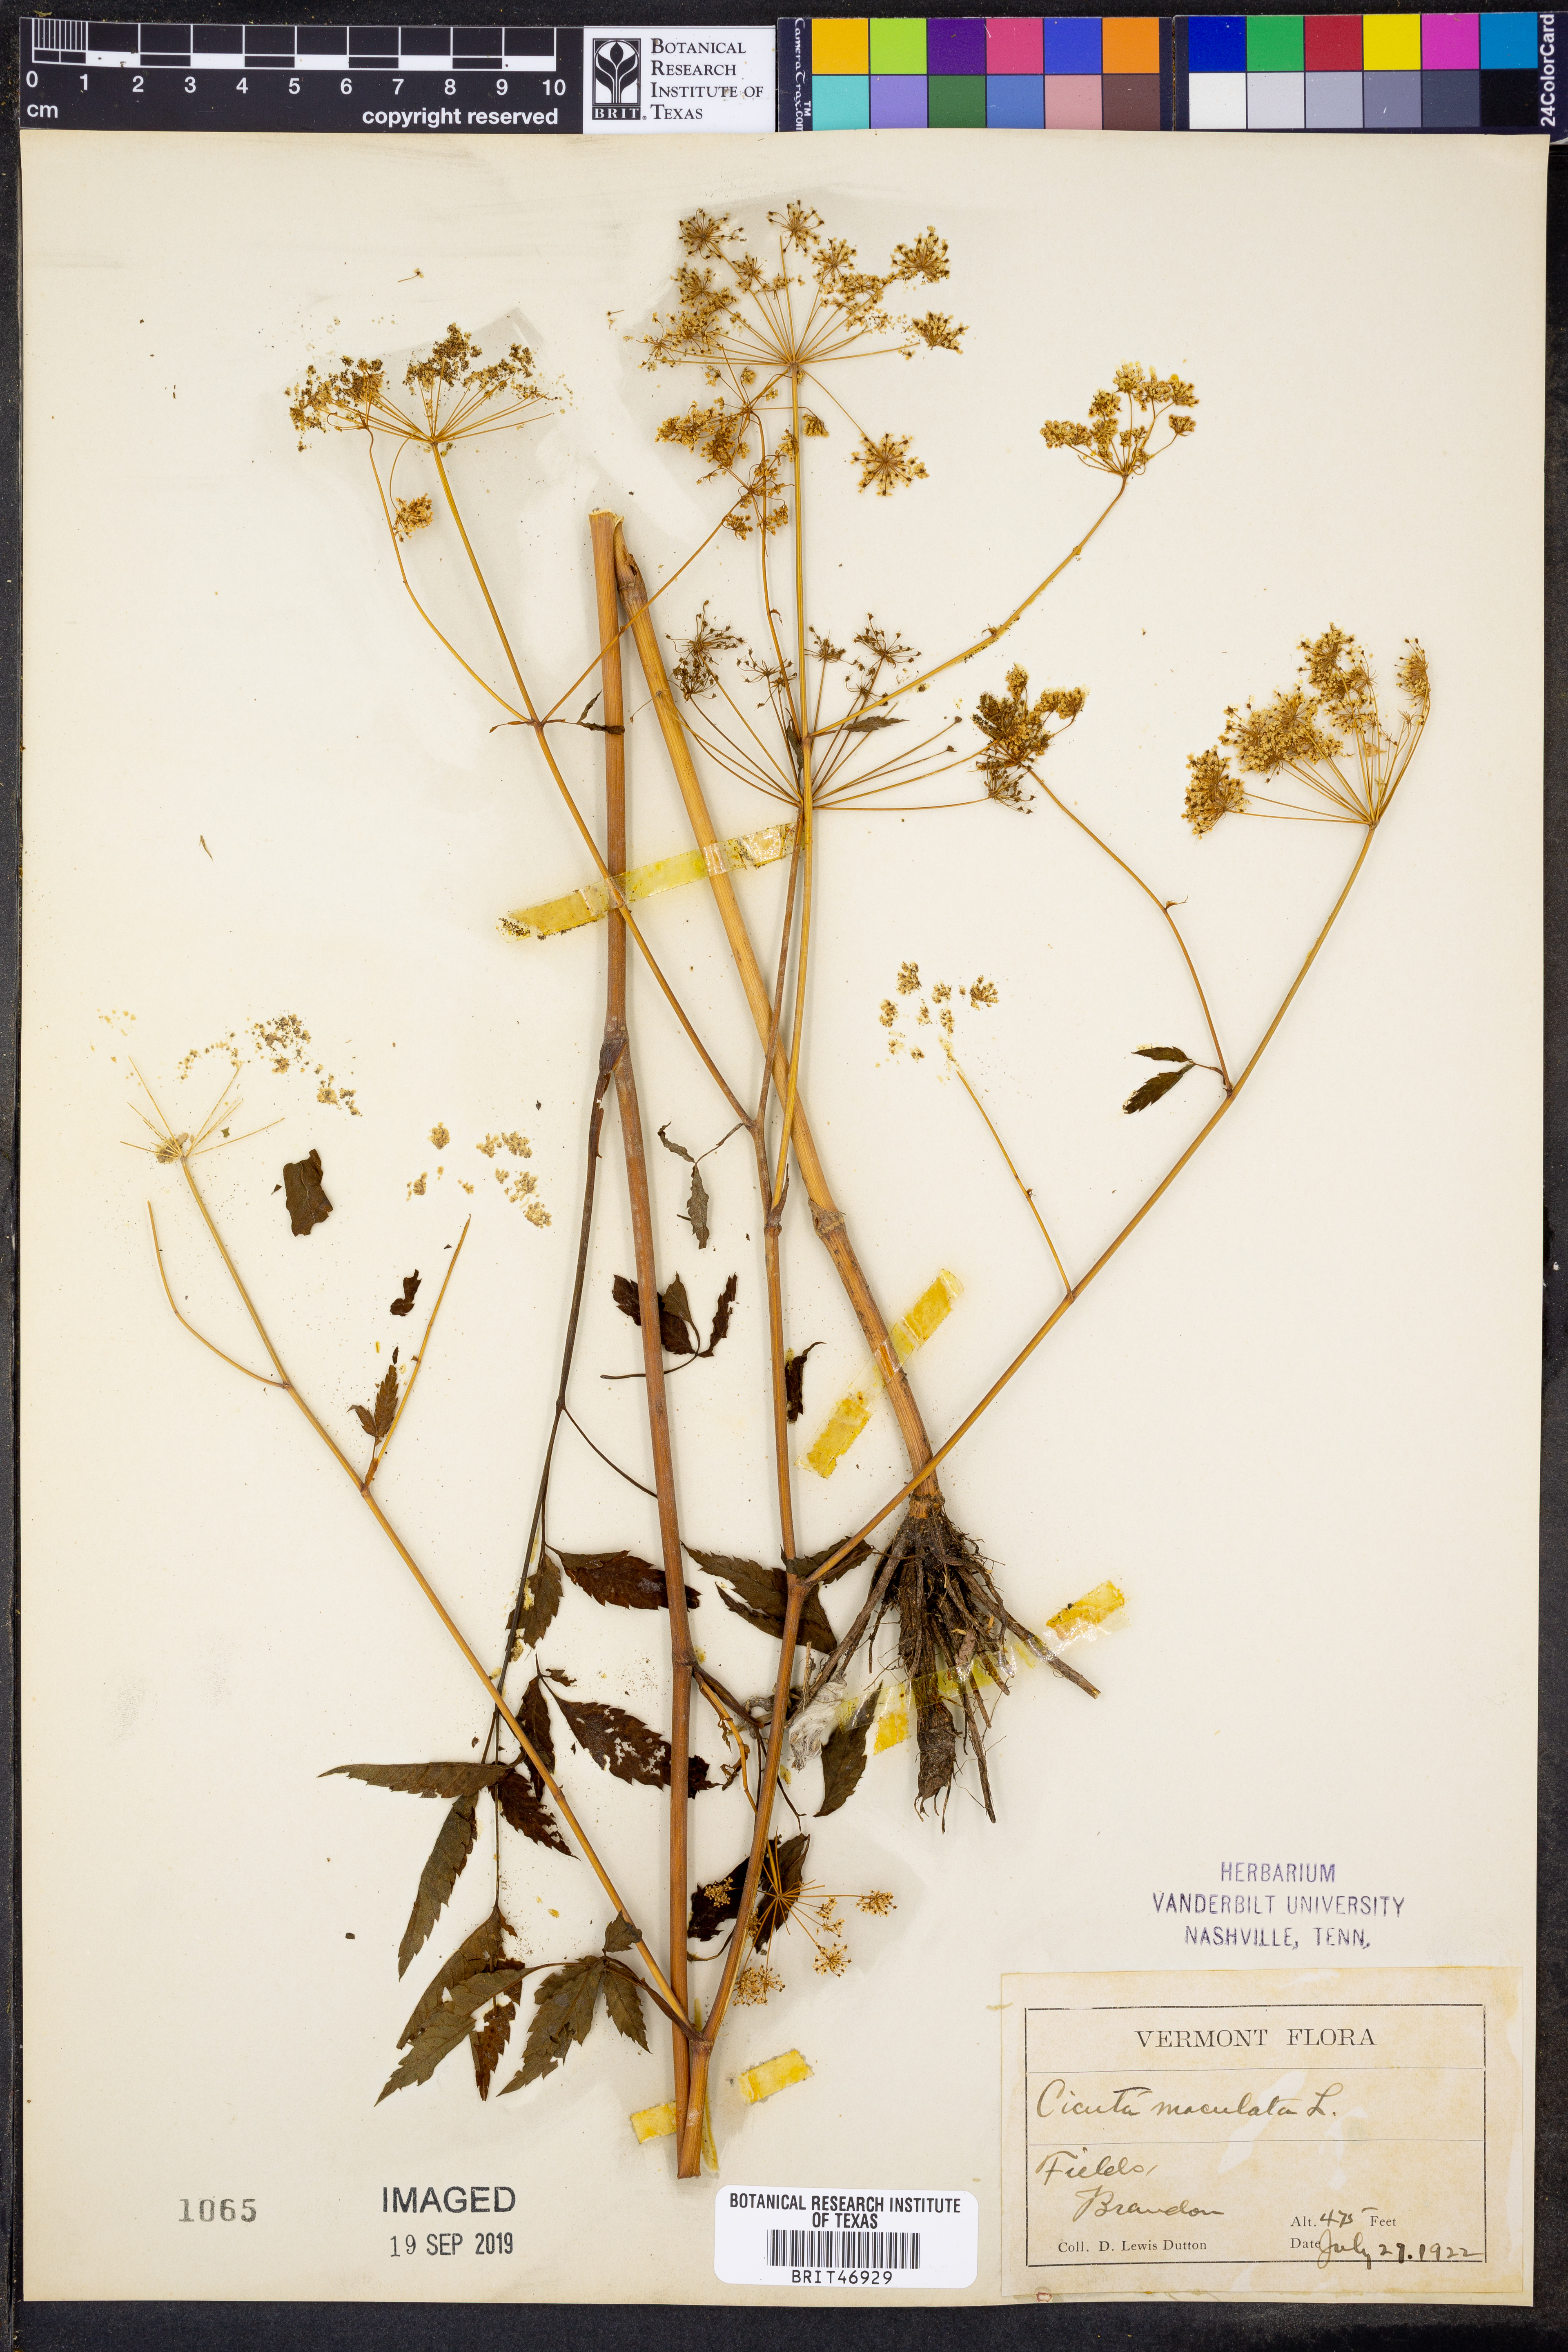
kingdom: Plantae
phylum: Tracheophyta
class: Magnoliopsida
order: Apiales
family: Apiaceae
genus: Cicuta
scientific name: Cicuta maculata
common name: Spotted cowbane
